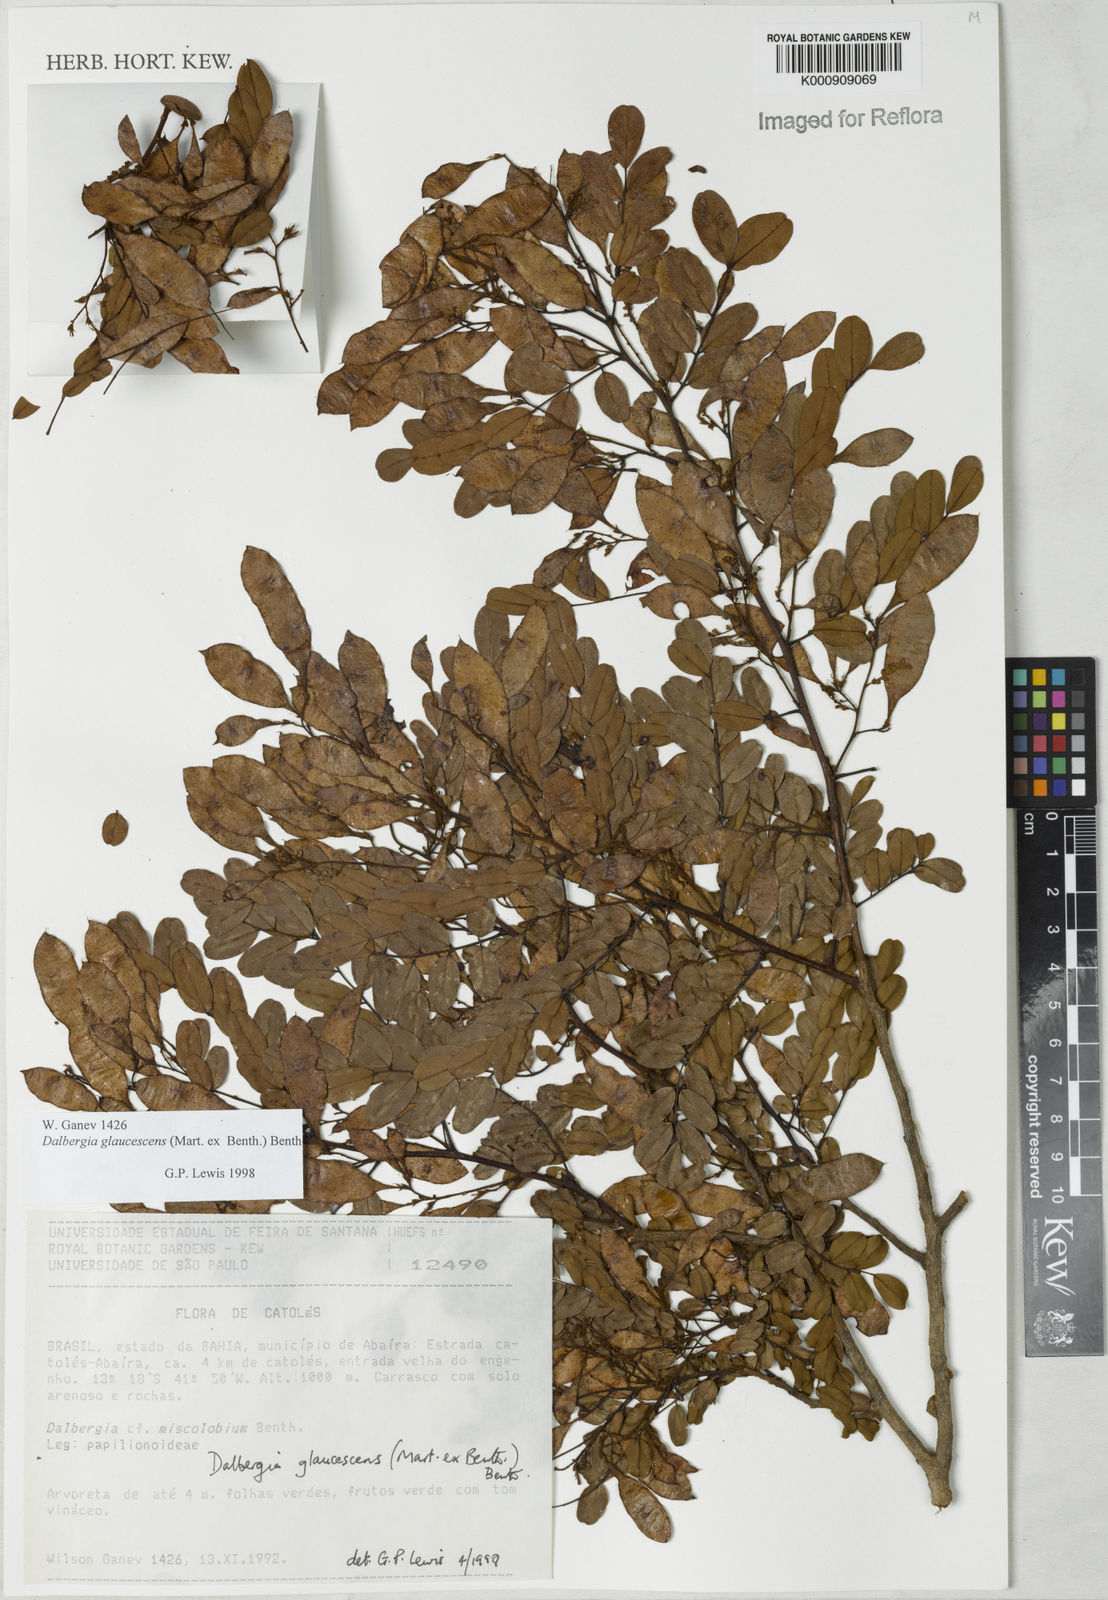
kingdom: Plantae
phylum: Tracheophyta
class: Magnoliopsida
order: Fabales
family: Fabaceae
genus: Dalbergia
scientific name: Dalbergia glaucescens
